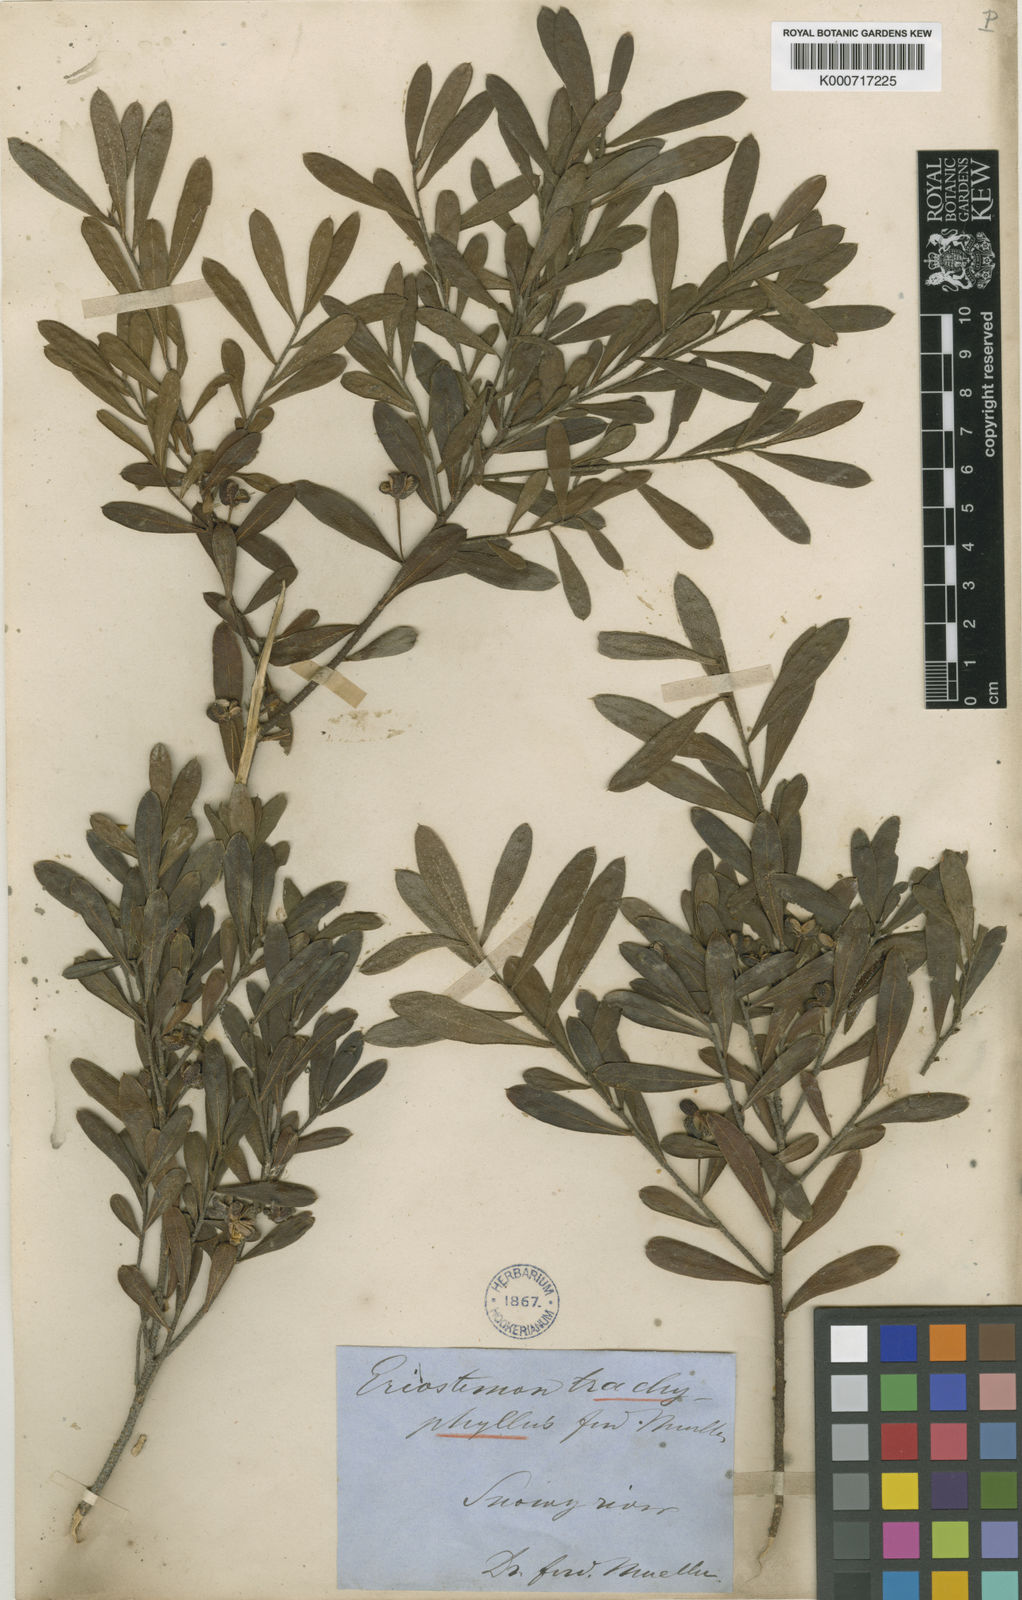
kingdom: Plantae
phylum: Tracheophyta
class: Magnoliopsida
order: Sapindales
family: Rutaceae
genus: Philotheca
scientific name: Philotheca trachyphylla
